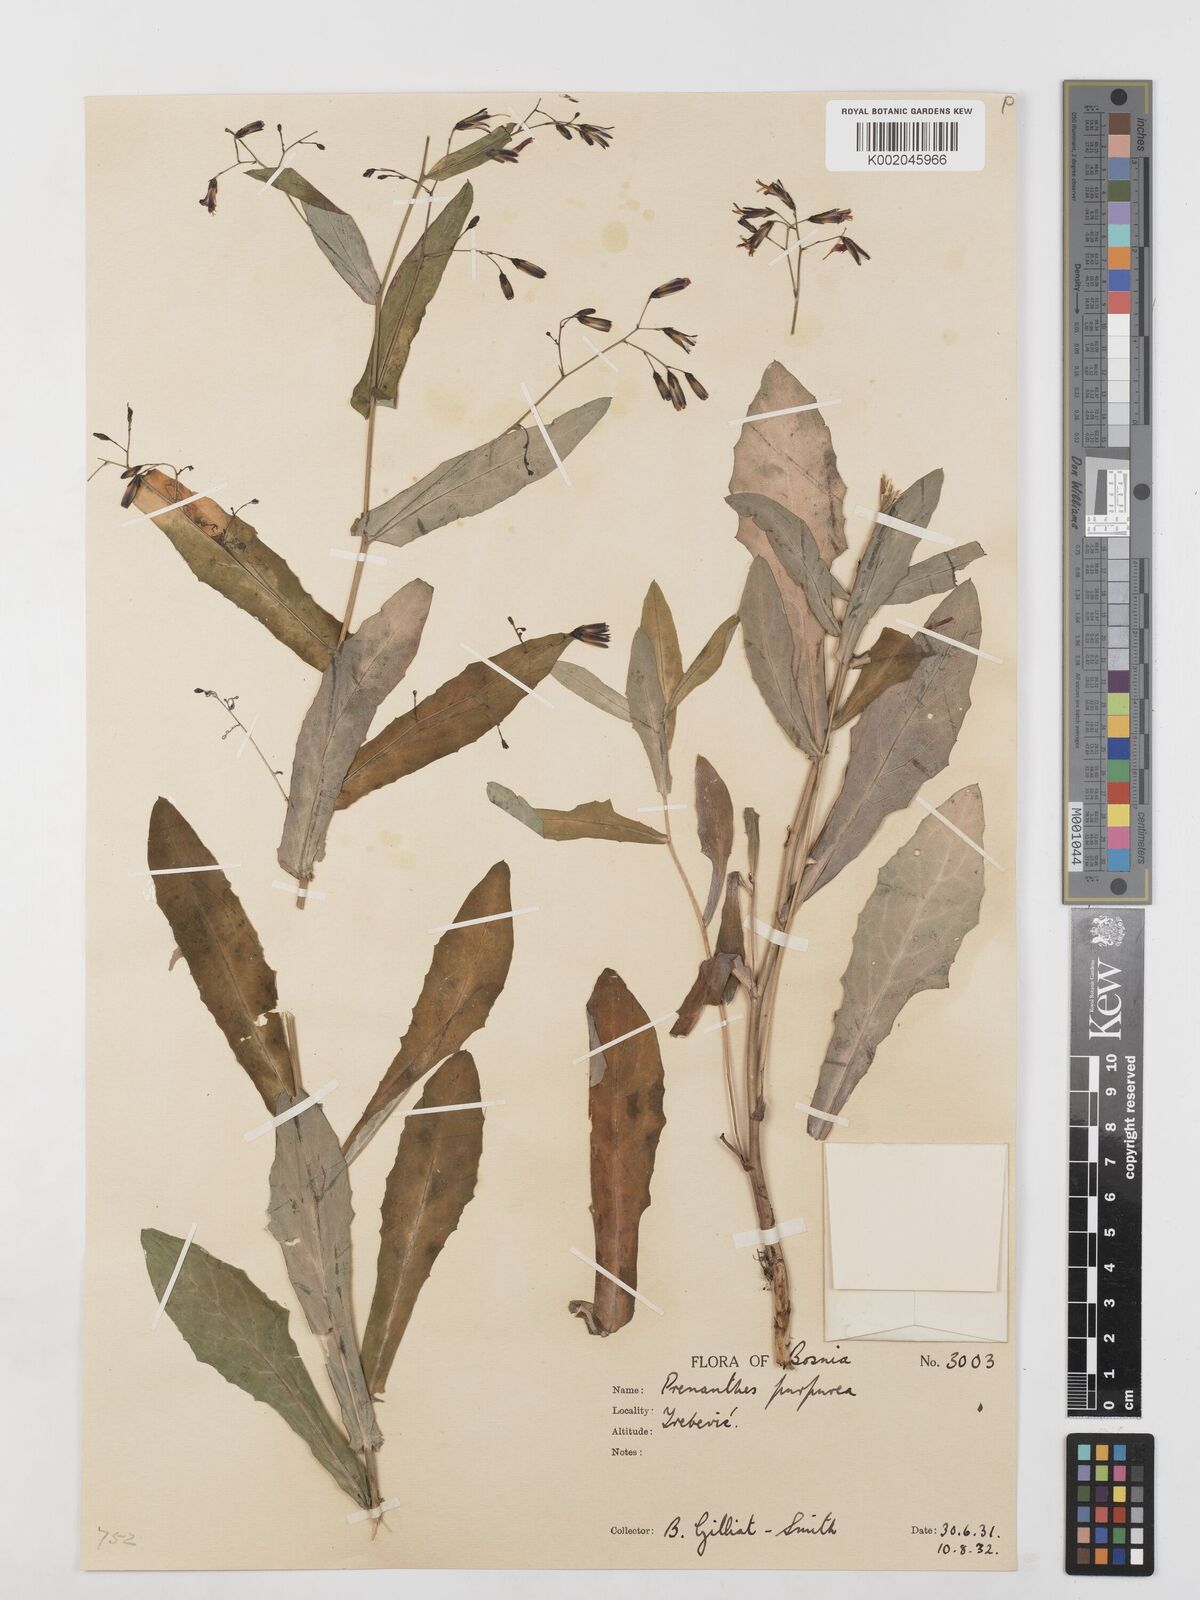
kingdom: Plantae
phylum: Tracheophyta
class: Magnoliopsida
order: Asterales
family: Asteraceae
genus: Prenanthes
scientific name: Prenanthes purpurea
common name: Purple lettuce
